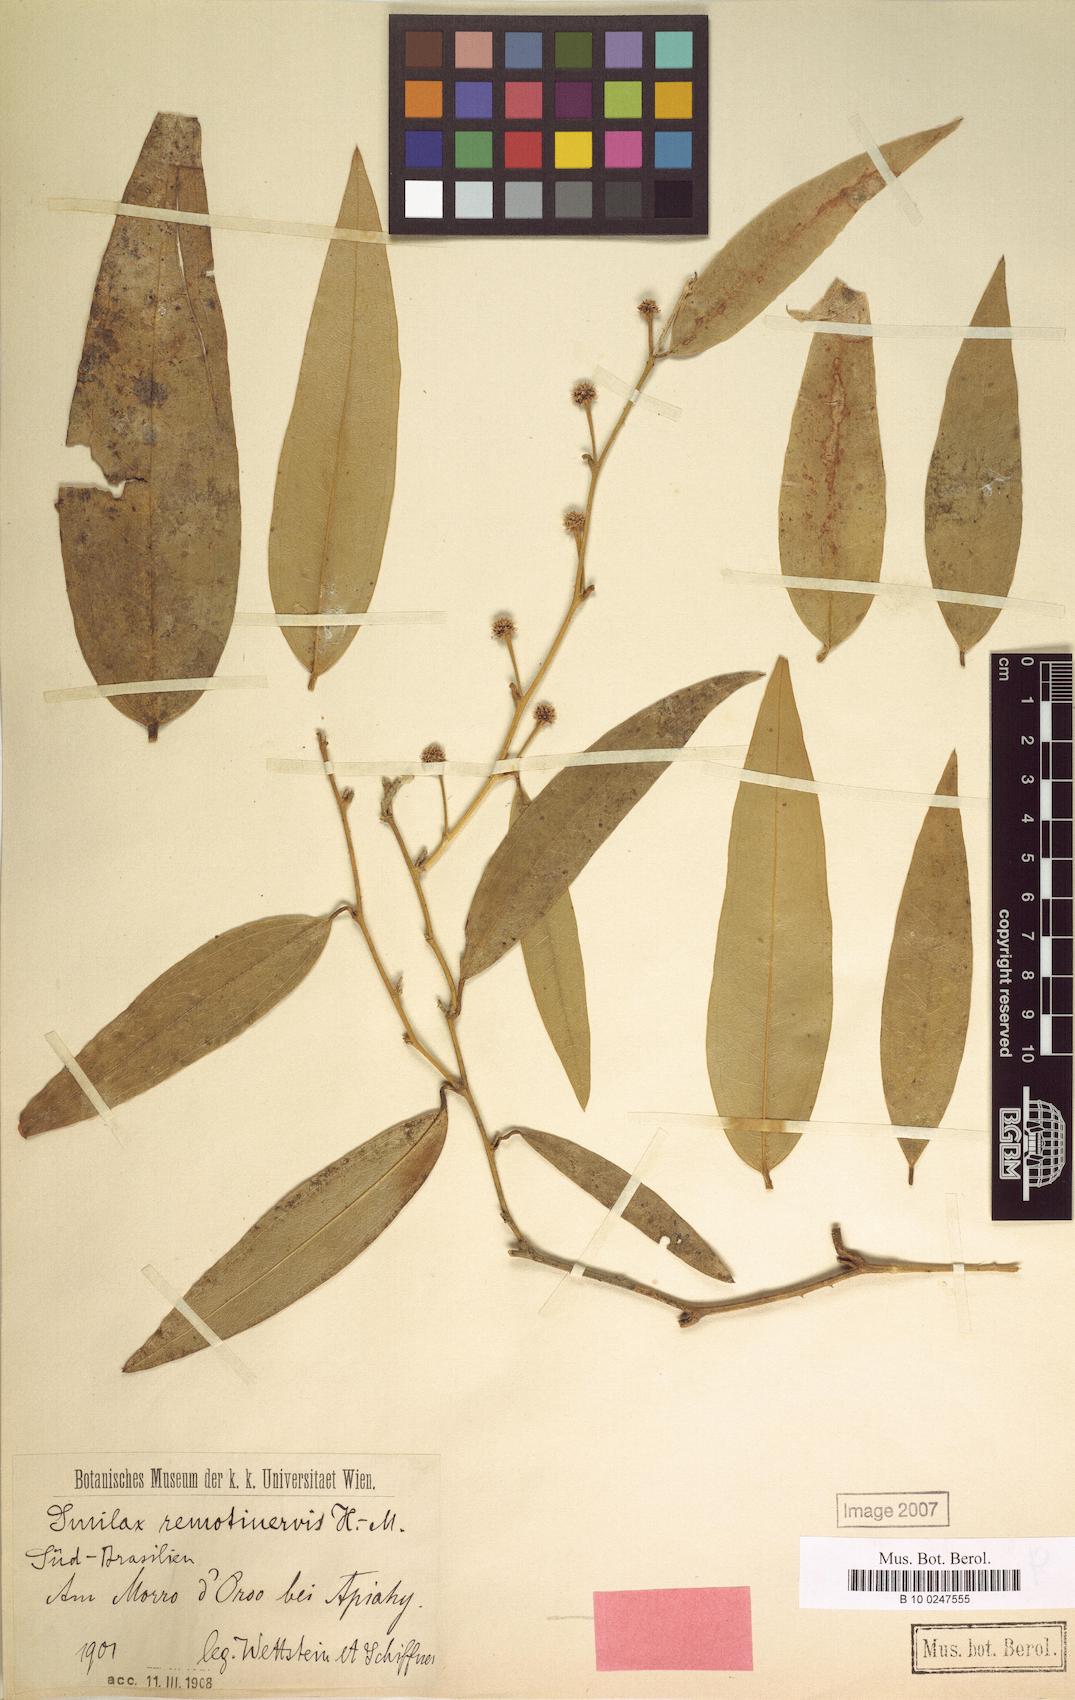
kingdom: Plantae
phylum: Tracheophyta
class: Liliopsida
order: Liliales
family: Smilacaceae
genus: Smilax
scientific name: Smilax remotinervis
